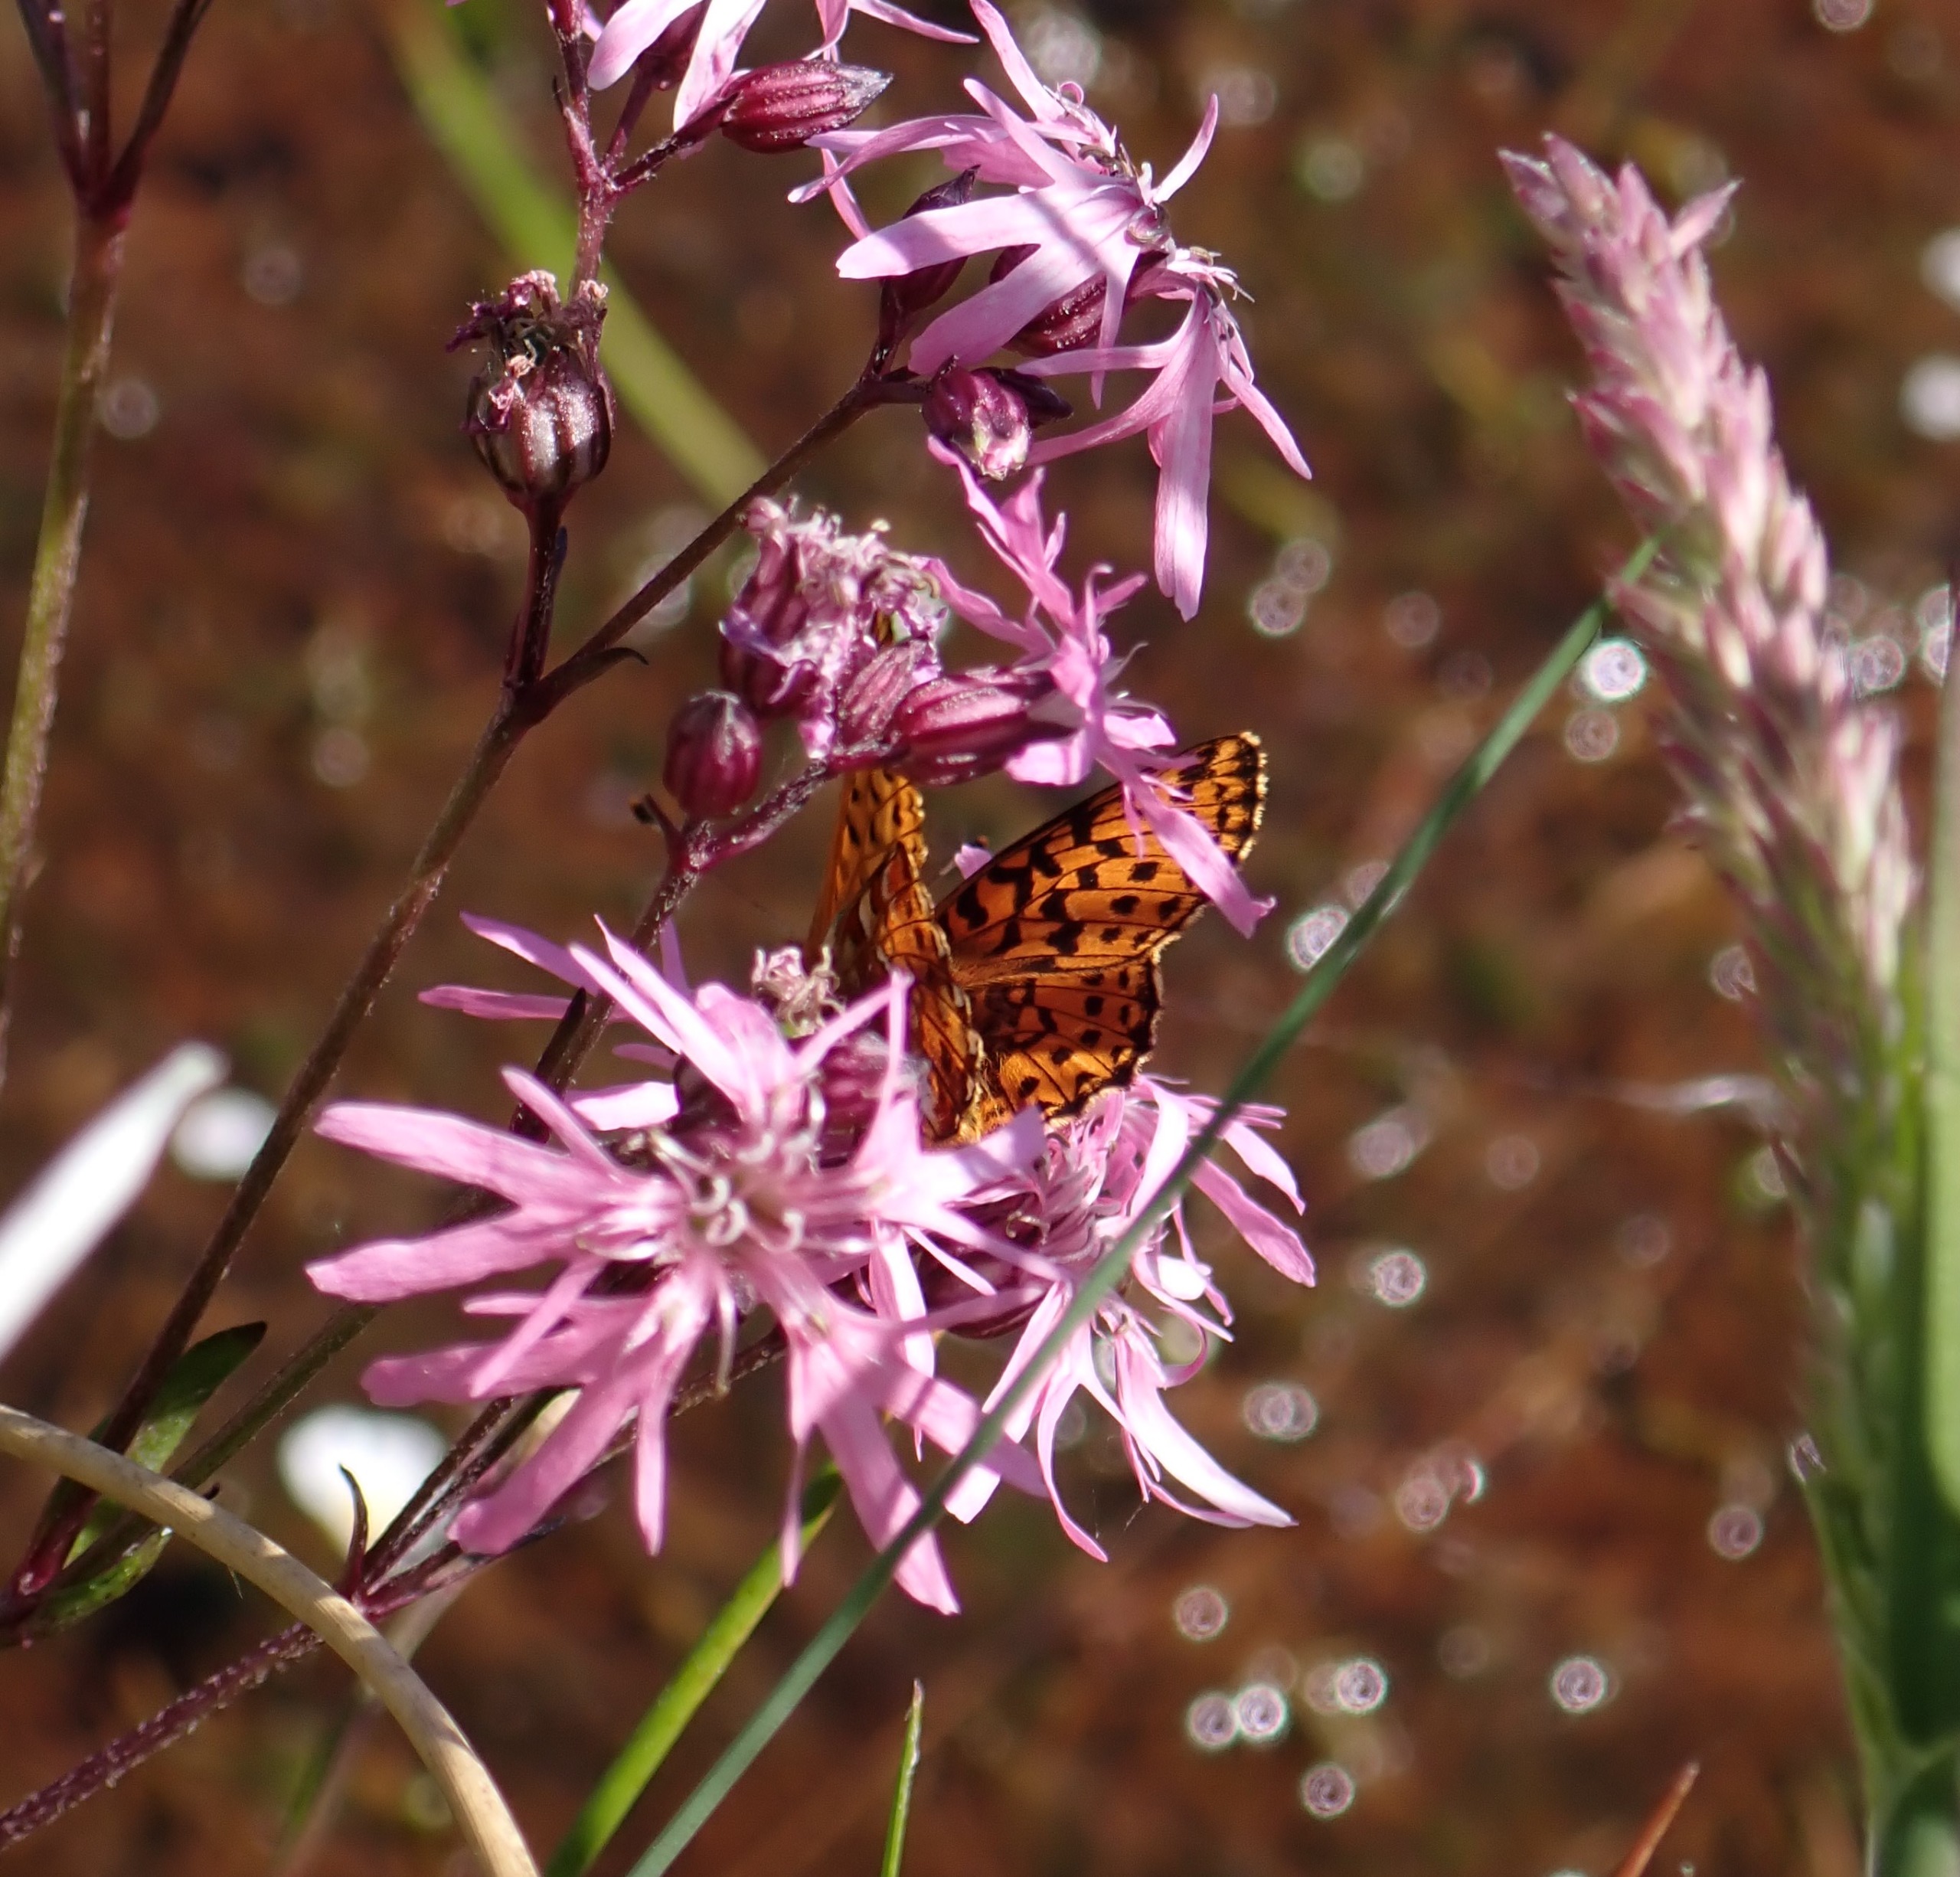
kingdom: Animalia
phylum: Arthropoda
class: Insecta
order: Lepidoptera
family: Nymphalidae
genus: Boloria
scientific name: Boloria aquilonaris
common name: Moseperlemorsommerfugl
